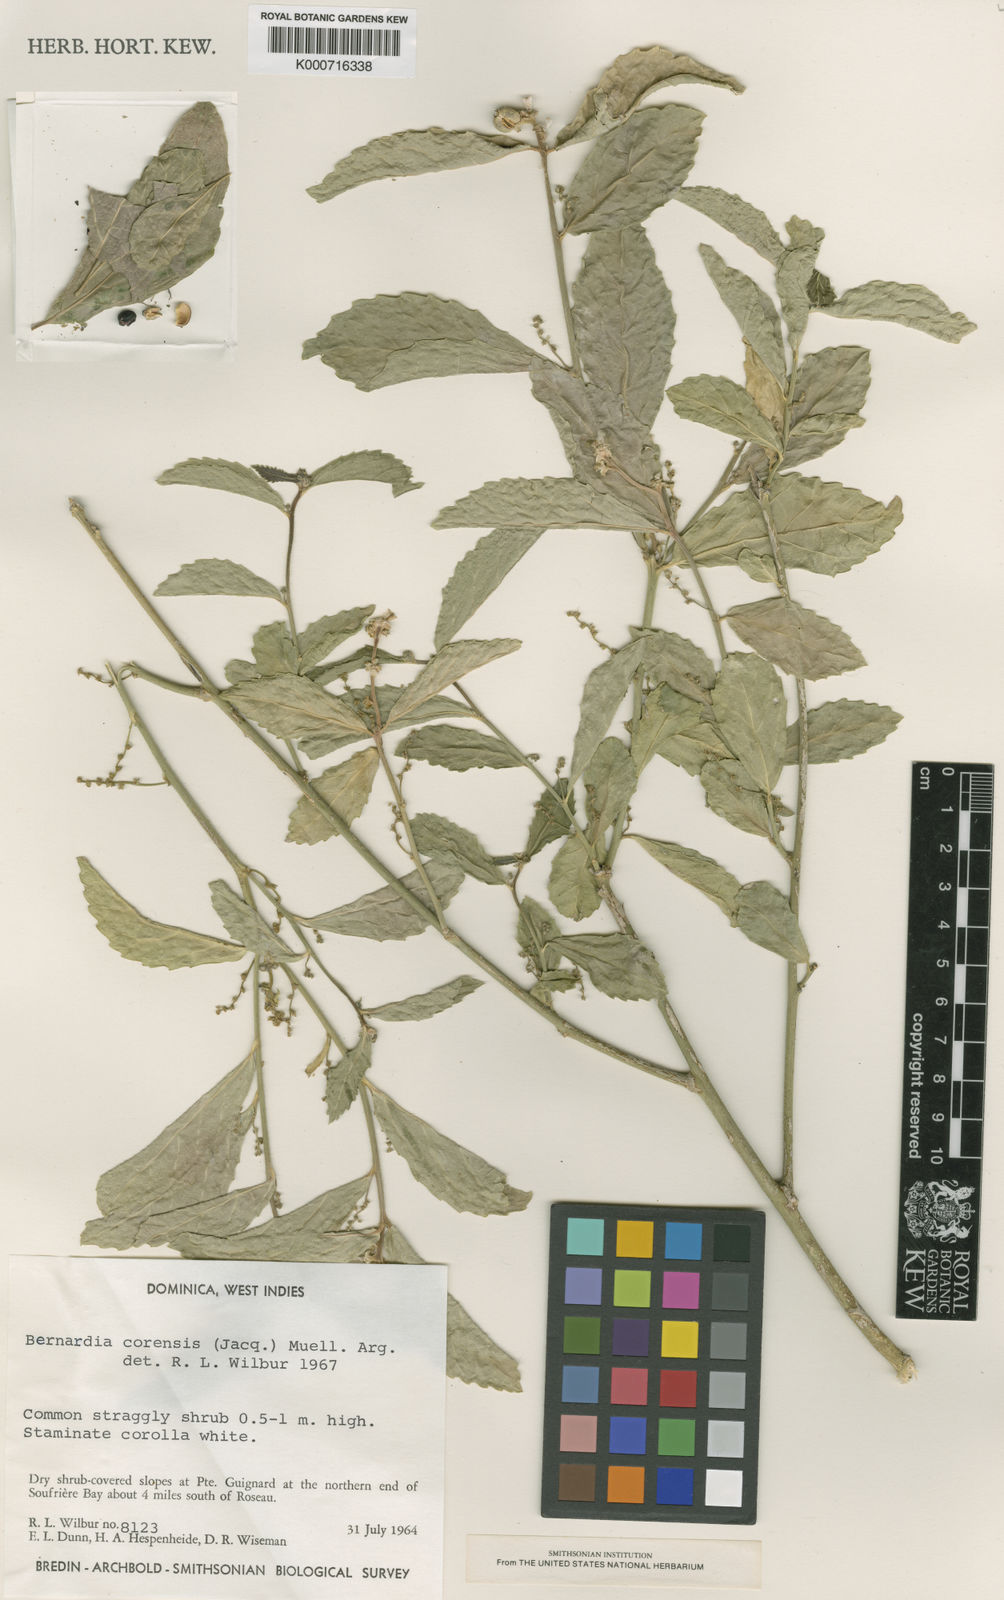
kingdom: Plantae
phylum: Tracheophyta
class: Magnoliopsida
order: Malpighiales
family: Euphorbiaceae
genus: Bernardia
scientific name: Bernardia
